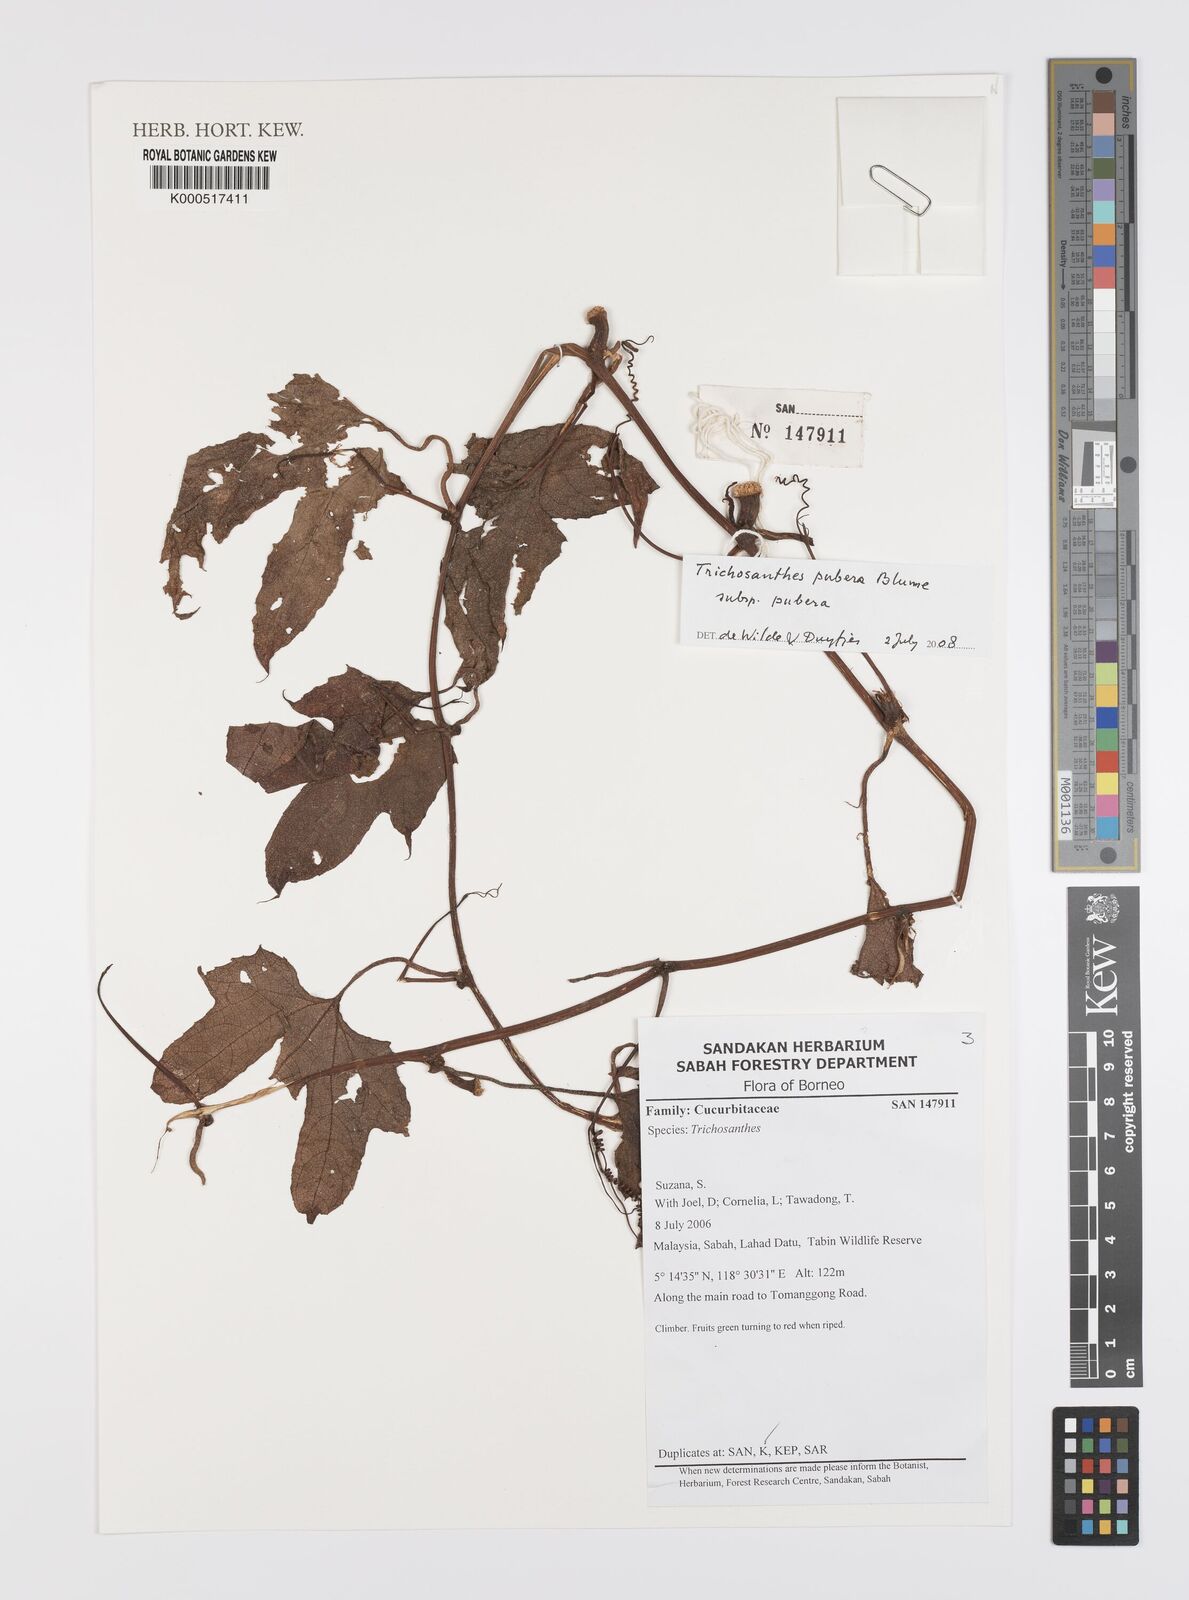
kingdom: Plantae
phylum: Tracheophyta
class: Magnoliopsida
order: Cucurbitales
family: Cucurbitaceae
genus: Trichosanthes
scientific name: Trichosanthes pubera
